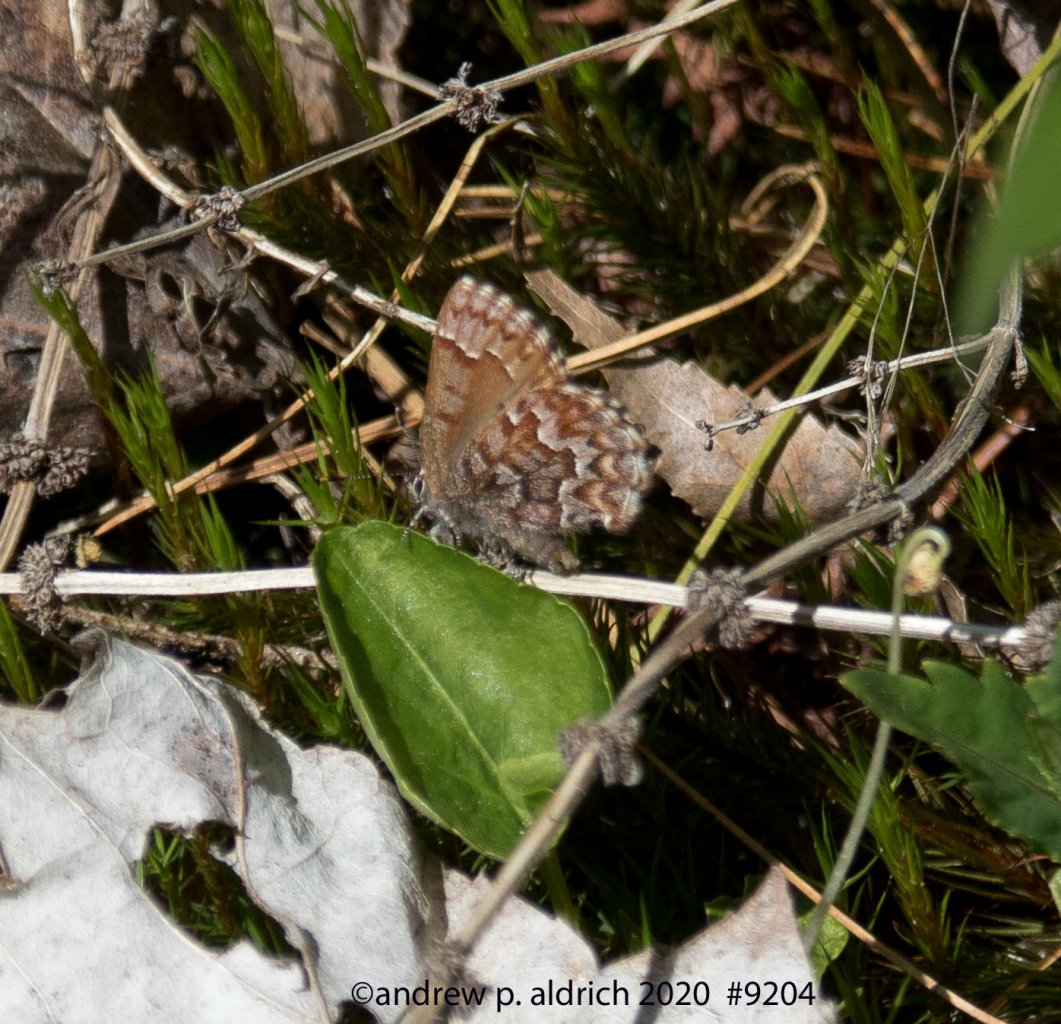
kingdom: Animalia
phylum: Arthropoda
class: Insecta
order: Lepidoptera
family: Lycaenidae
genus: Incisalia
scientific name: Incisalia niphon
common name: Eastern Pine Elfin
